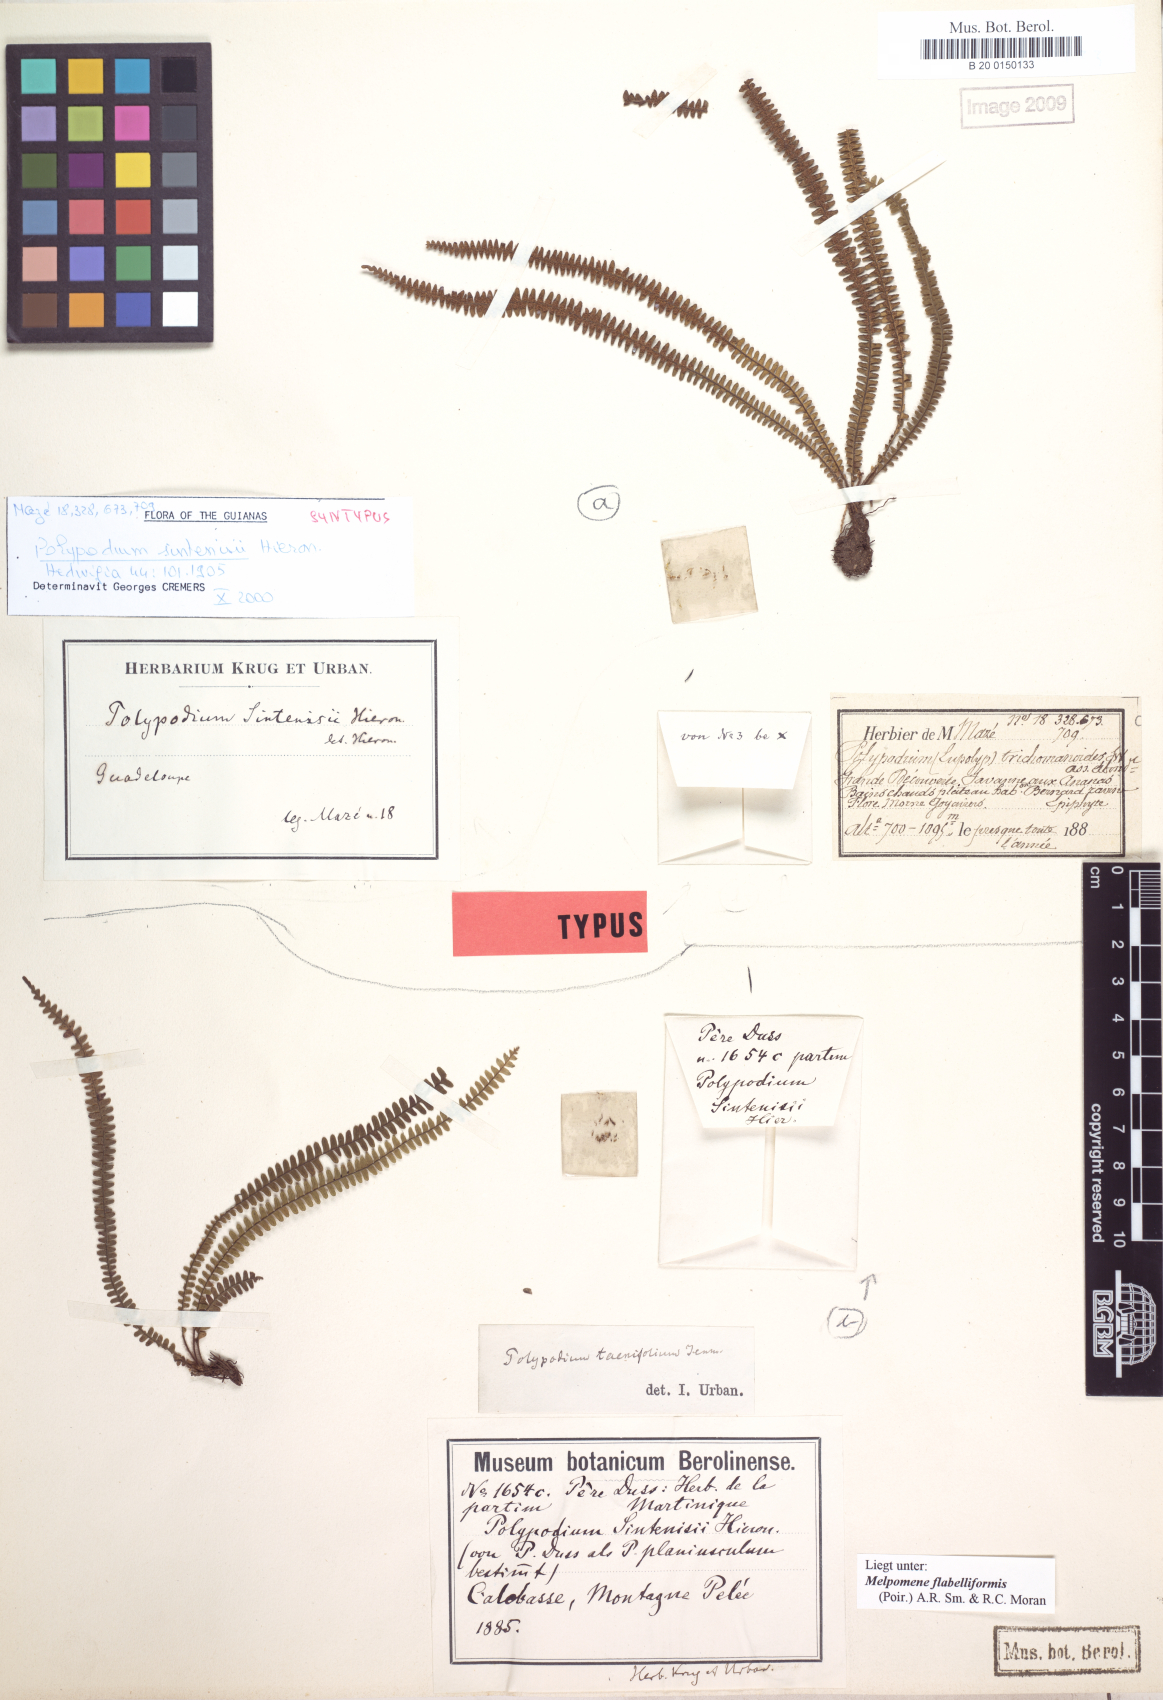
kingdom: Plantae
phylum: Tracheophyta
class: Polypodiopsida
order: Polypodiales
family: Polypodiaceae
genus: Moranopteris
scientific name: Moranopteris taenifolia
